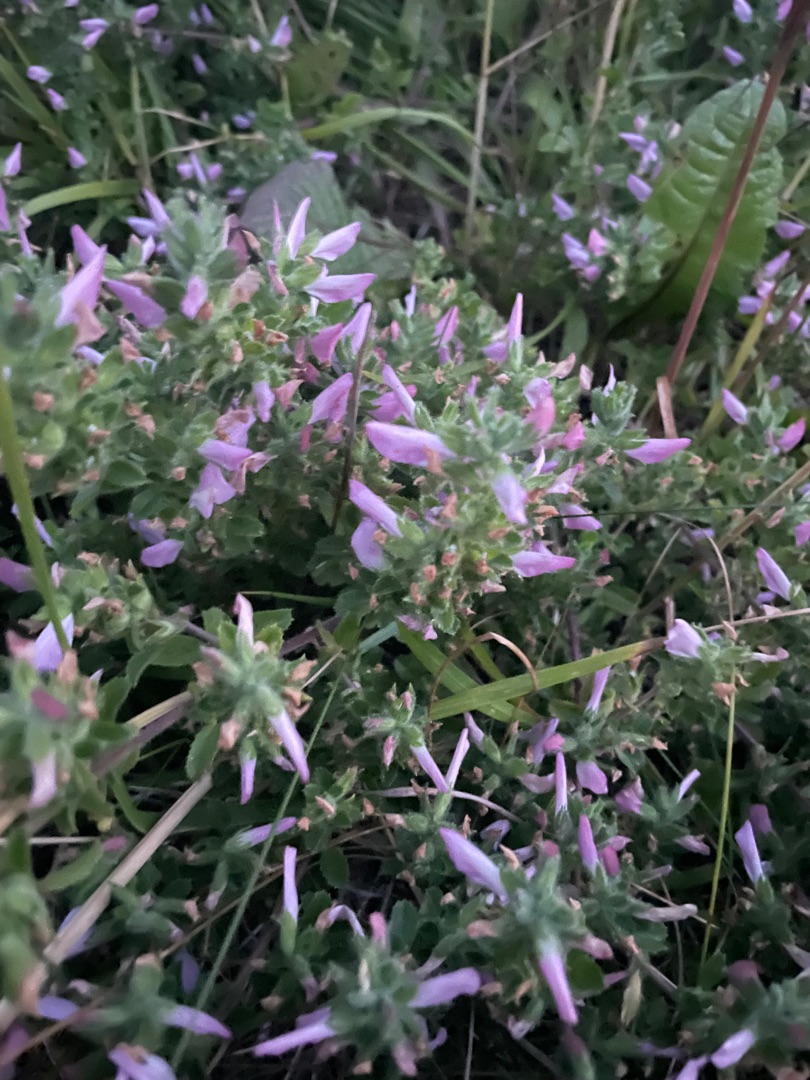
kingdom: Plantae
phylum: Tracheophyta
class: Magnoliopsida
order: Fabales
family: Fabaceae
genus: Ononis
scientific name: Ononis spinosa
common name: Krageklo
